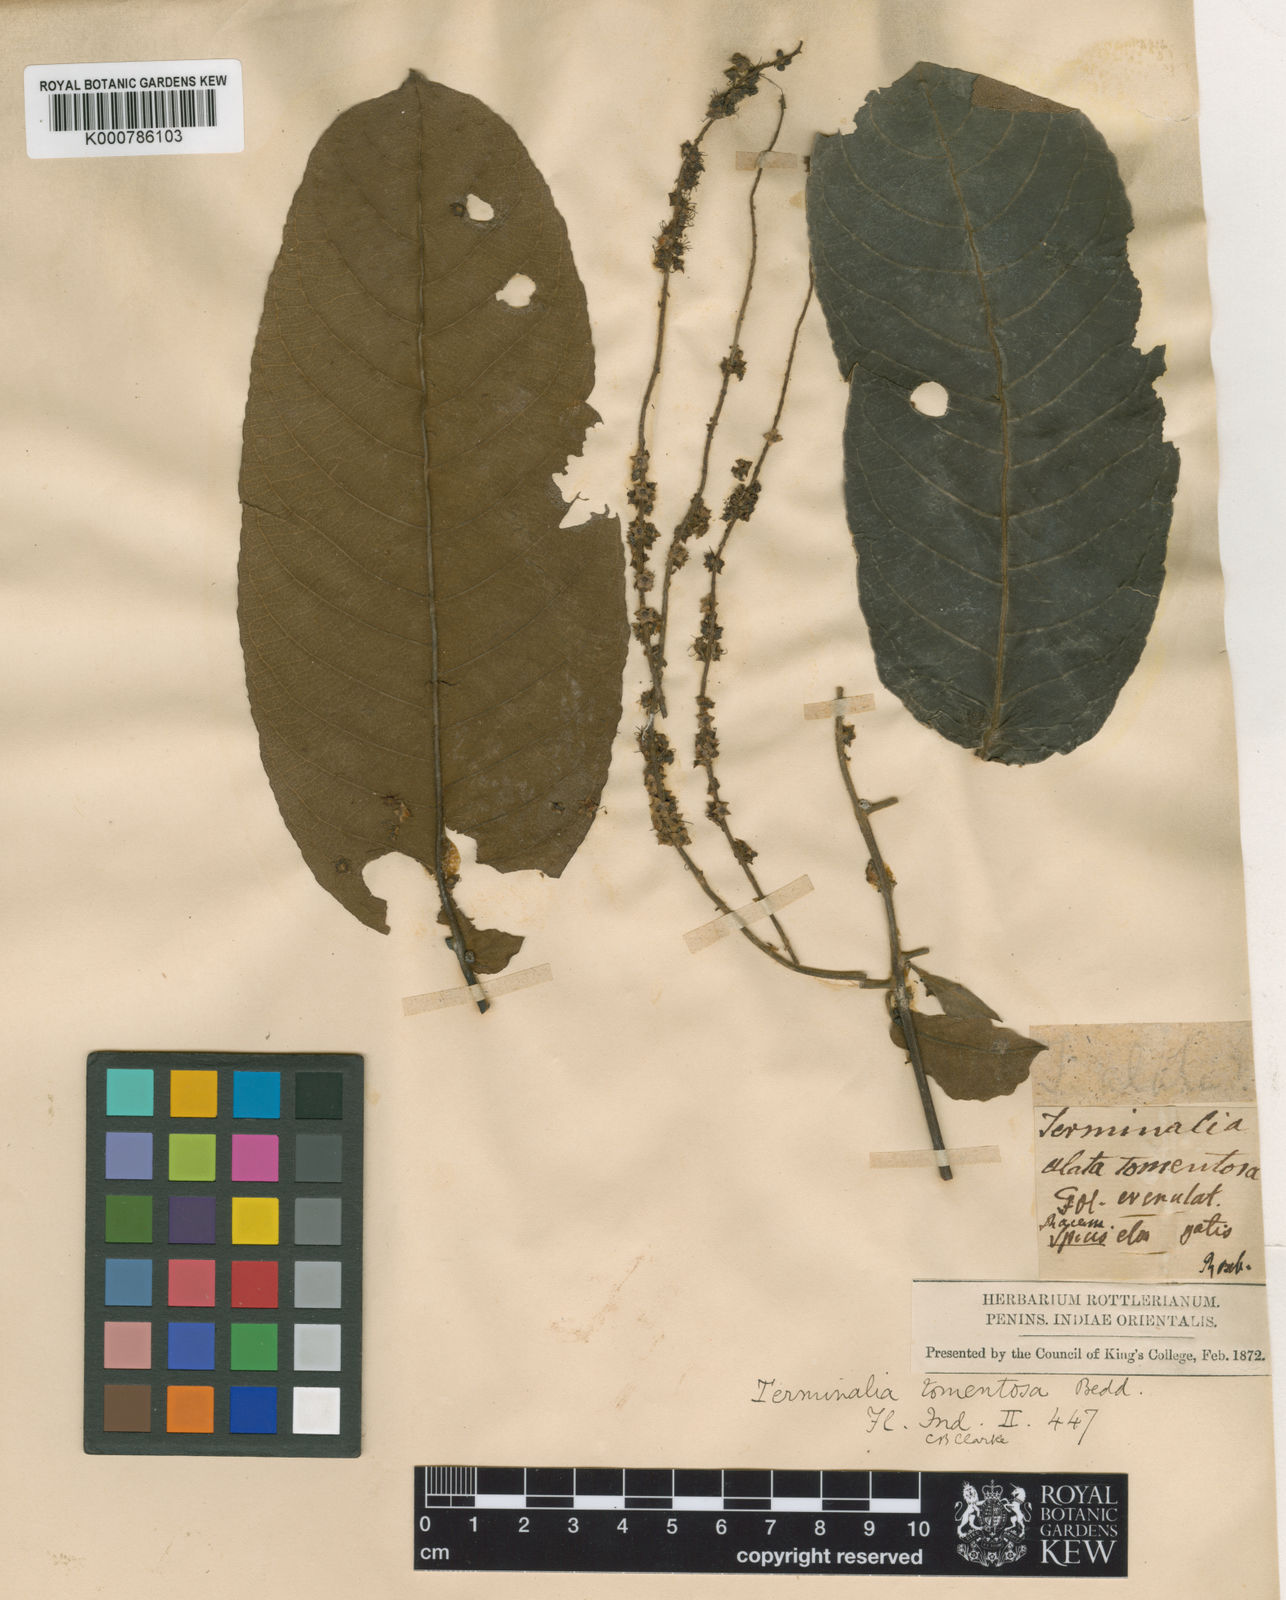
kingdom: Plantae
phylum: Tracheophyta
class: Magnoliopsida
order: Myrtales
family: Combretaceae
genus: Terminalia
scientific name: Terminalia
